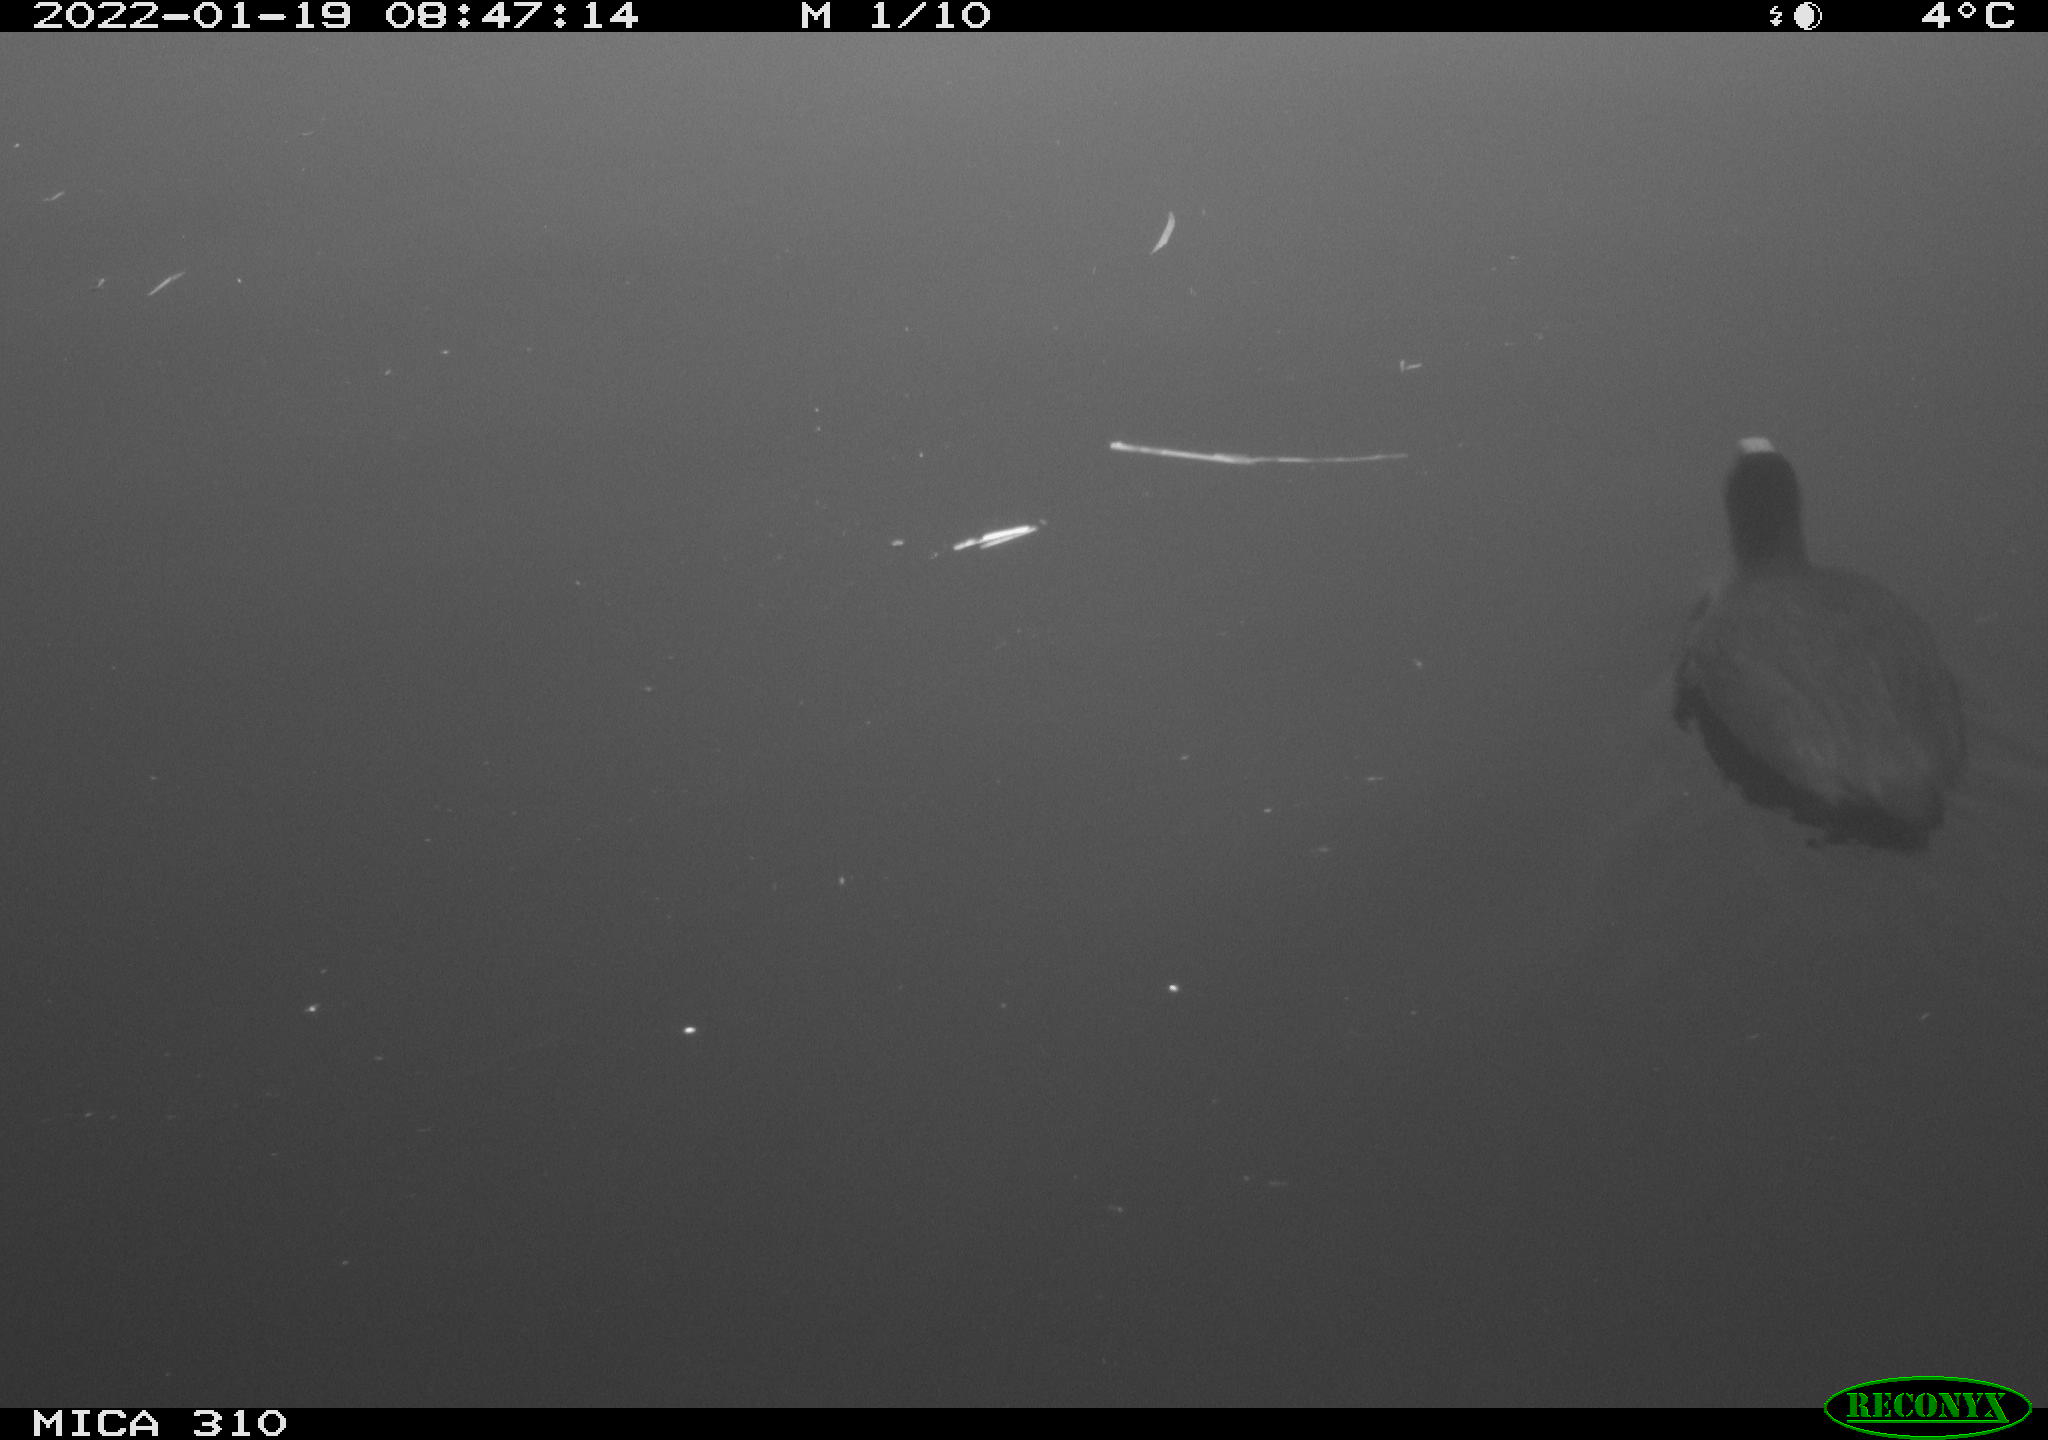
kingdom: Animalia
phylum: Chordata
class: Aves
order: Gruiformes
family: Rallidae
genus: Fulica
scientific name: Fulica atra
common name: Eurasian coot
